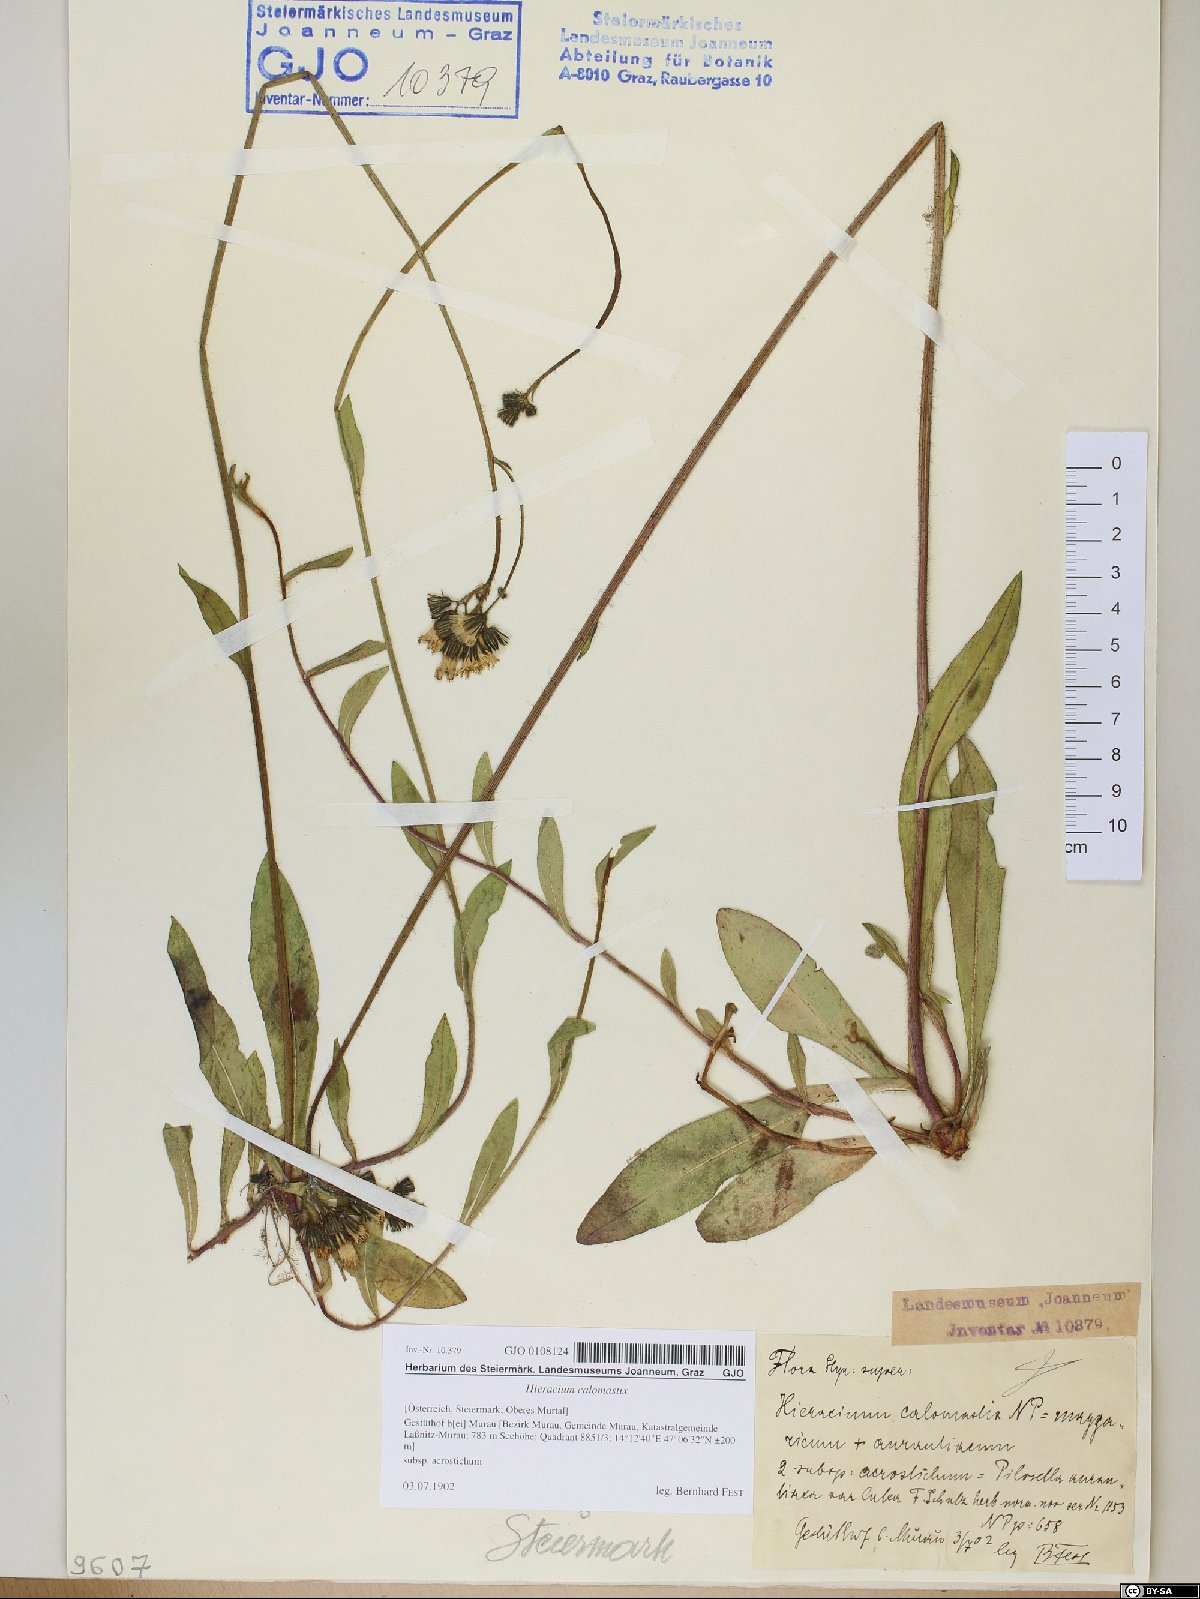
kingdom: Plantae
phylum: Tracheophyta
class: Magnoliopsida
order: Asterales
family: Asteraceae
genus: Pilosella
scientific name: Pilosella calomastix
